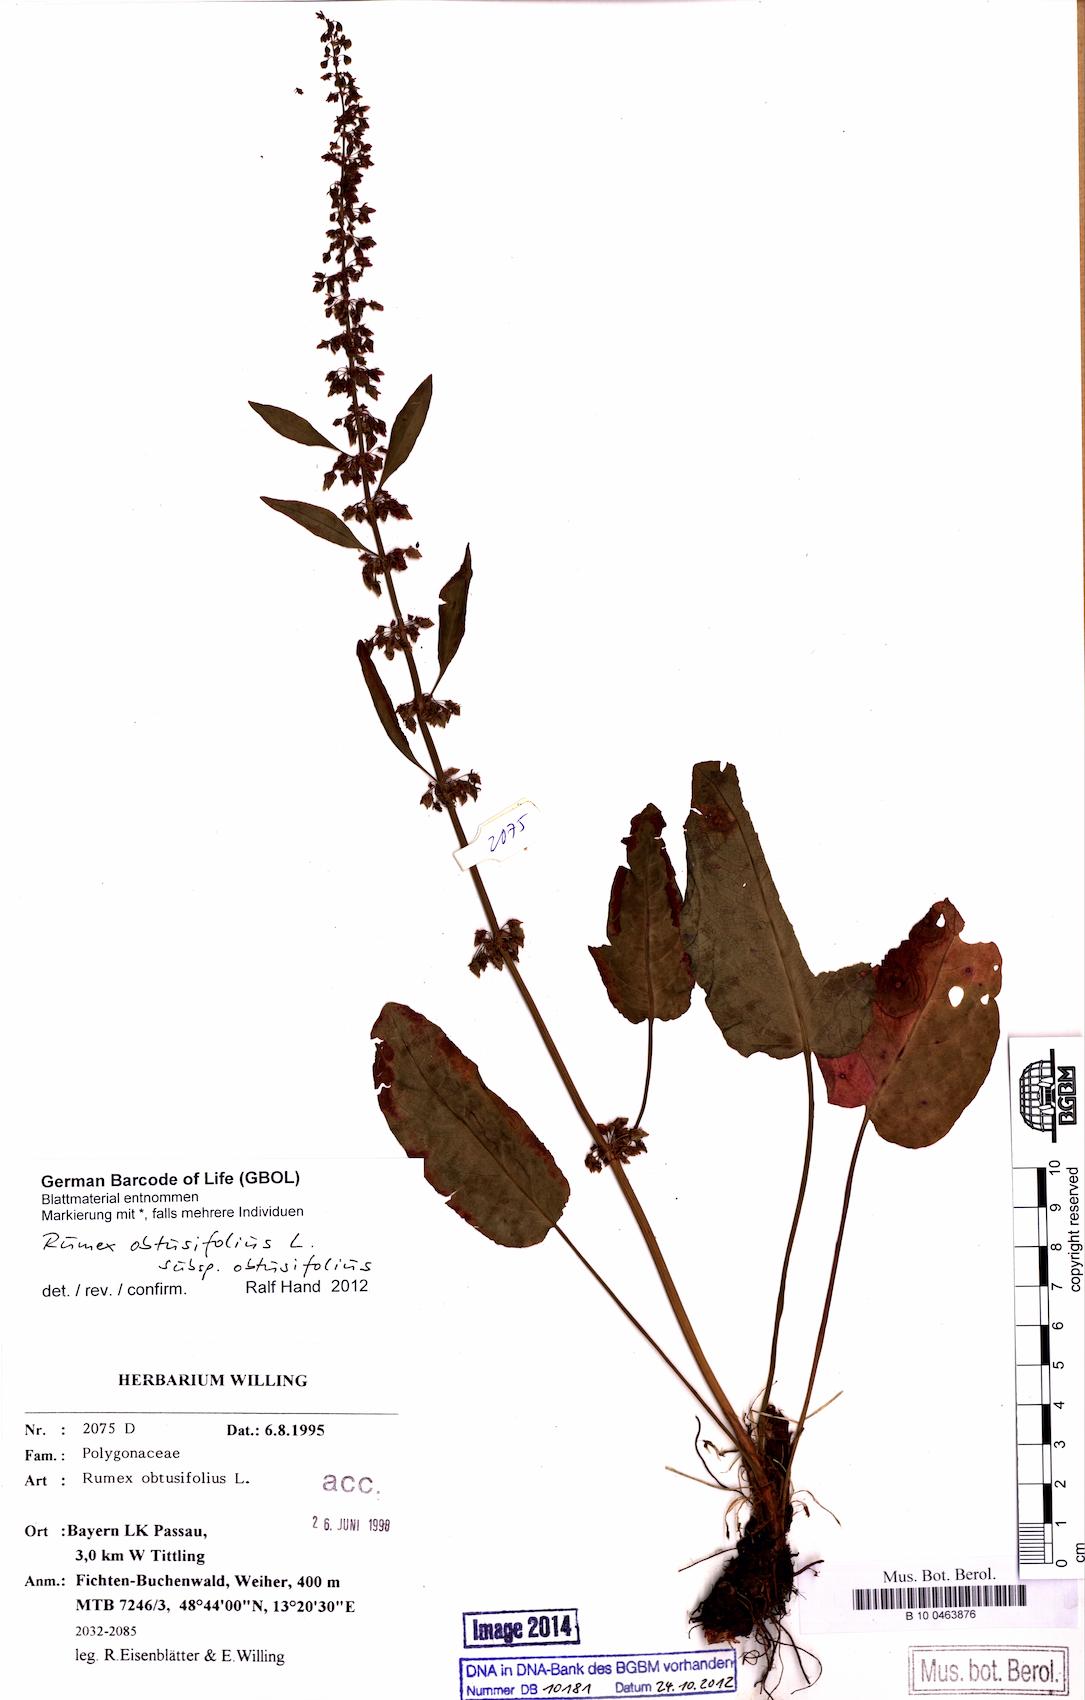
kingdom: Plantae
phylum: Tracheophyta
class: Magnoliopsida
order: Caryophyllales
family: Polygonaceae
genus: Rumex
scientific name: Rumex obtusifolius
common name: Bitter dock
